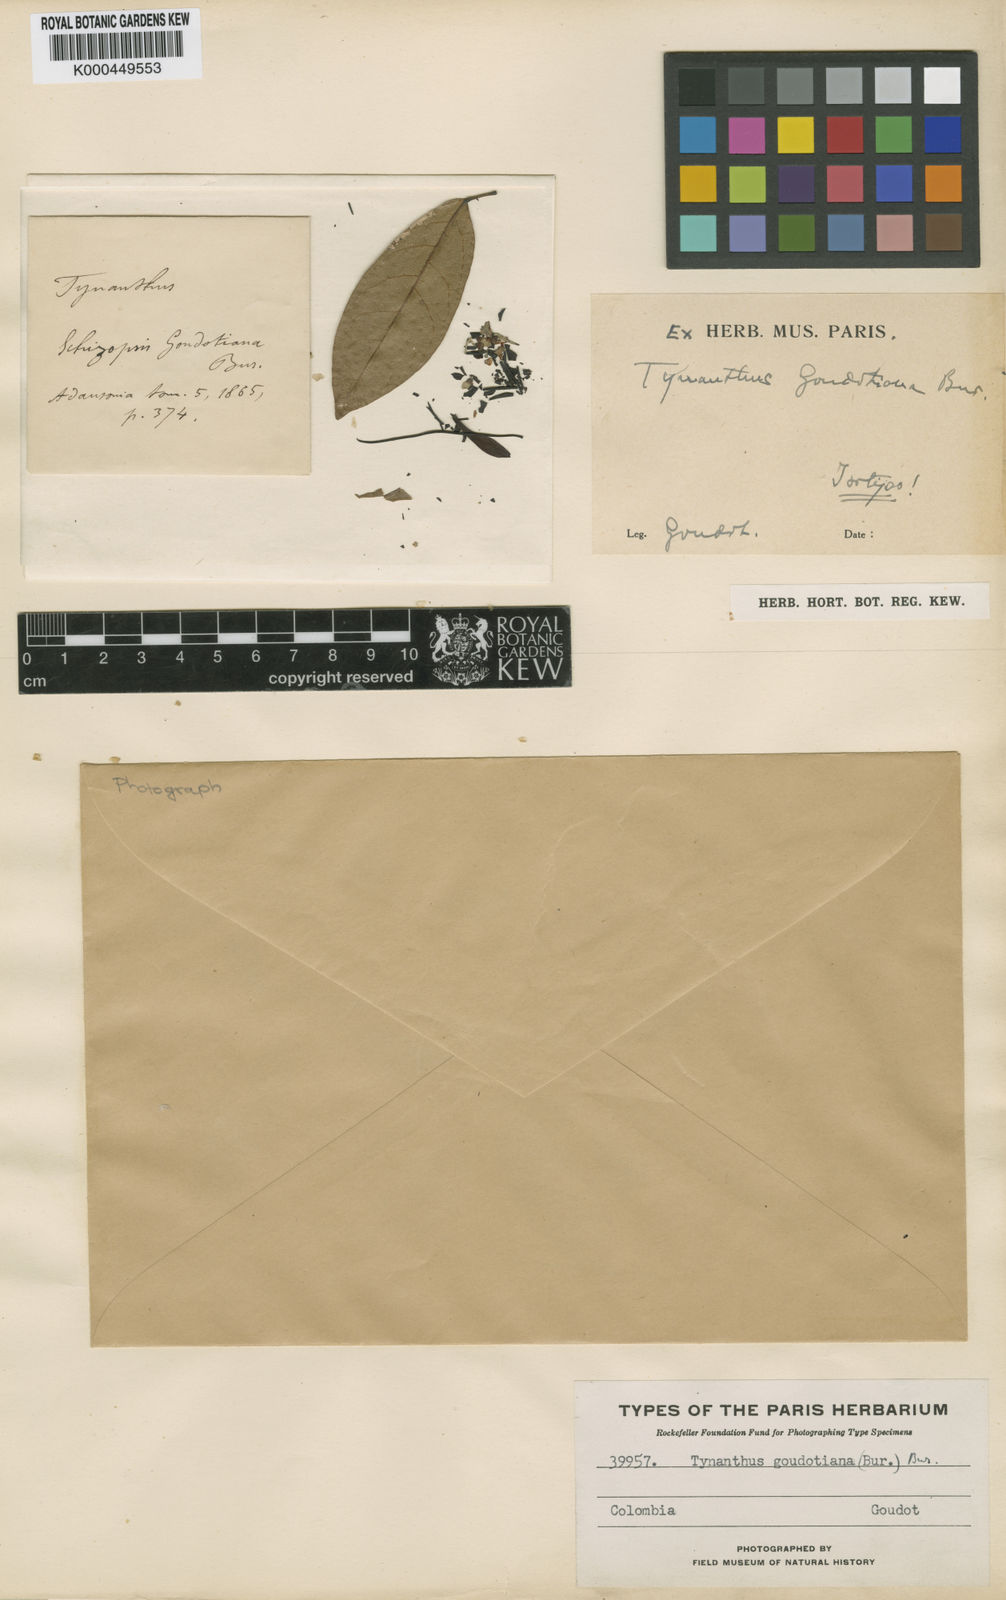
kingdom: Plantae
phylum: Tracheophyta
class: Magnoliopsida
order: Lamiales
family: Bignoniaceae
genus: Tynanthus
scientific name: Tynanthus goudotianus
